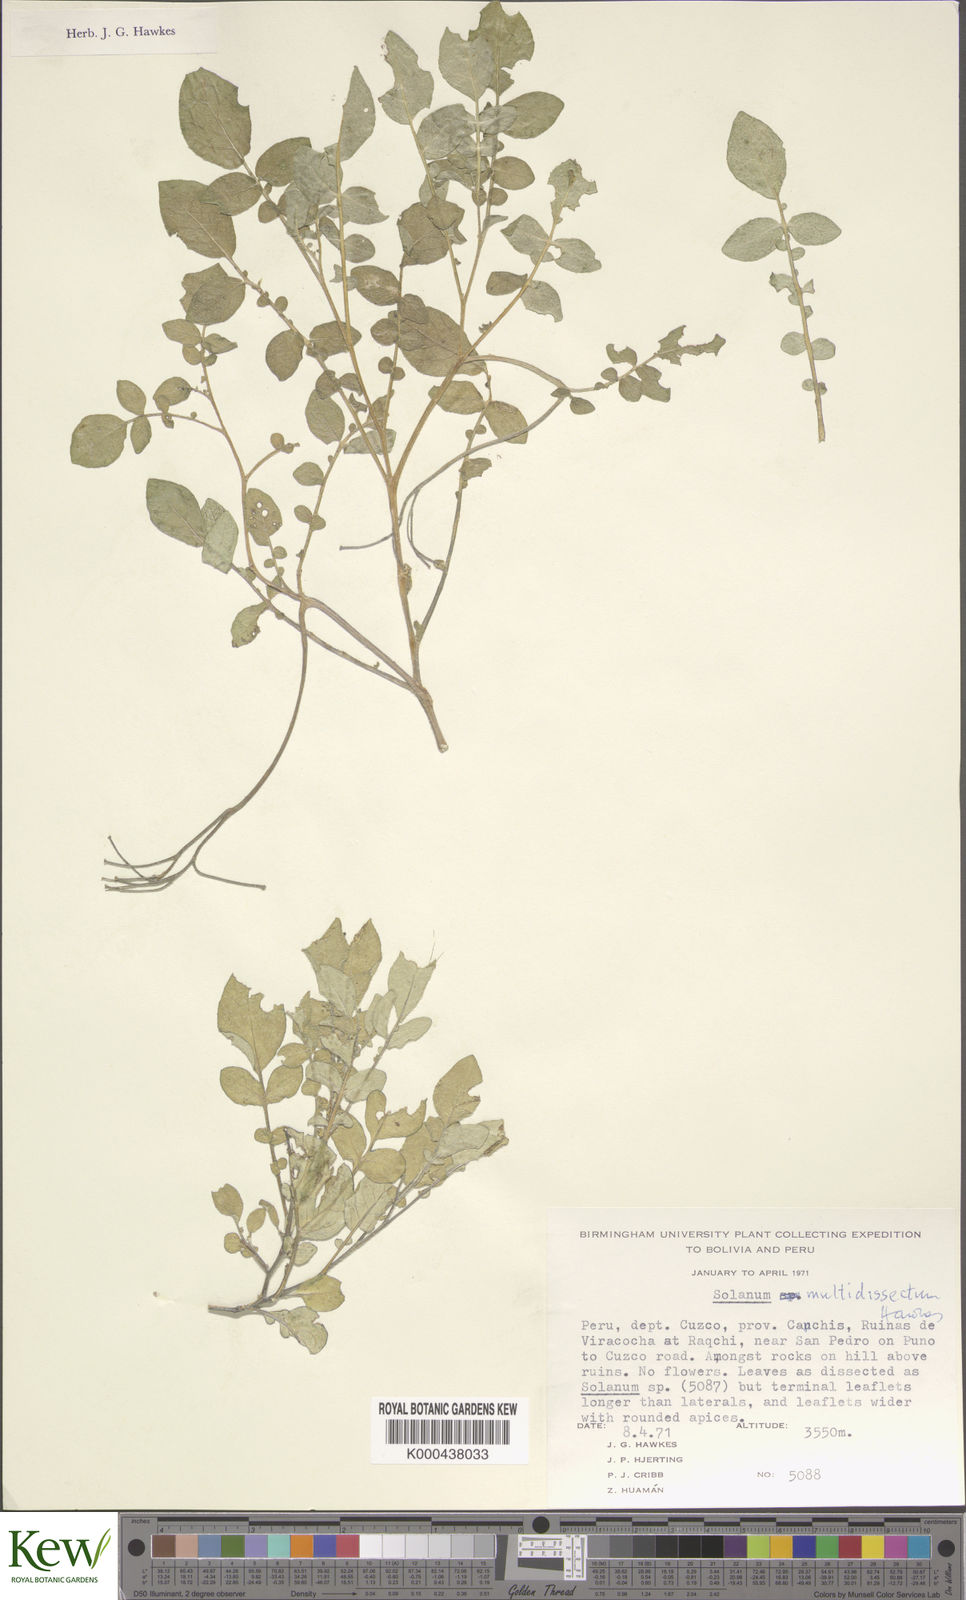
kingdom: Plantae
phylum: Tracheophyta
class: Magnoliopsida
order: Solanales
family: Solanaceae
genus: Solanum
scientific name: Solanum candolleanum
